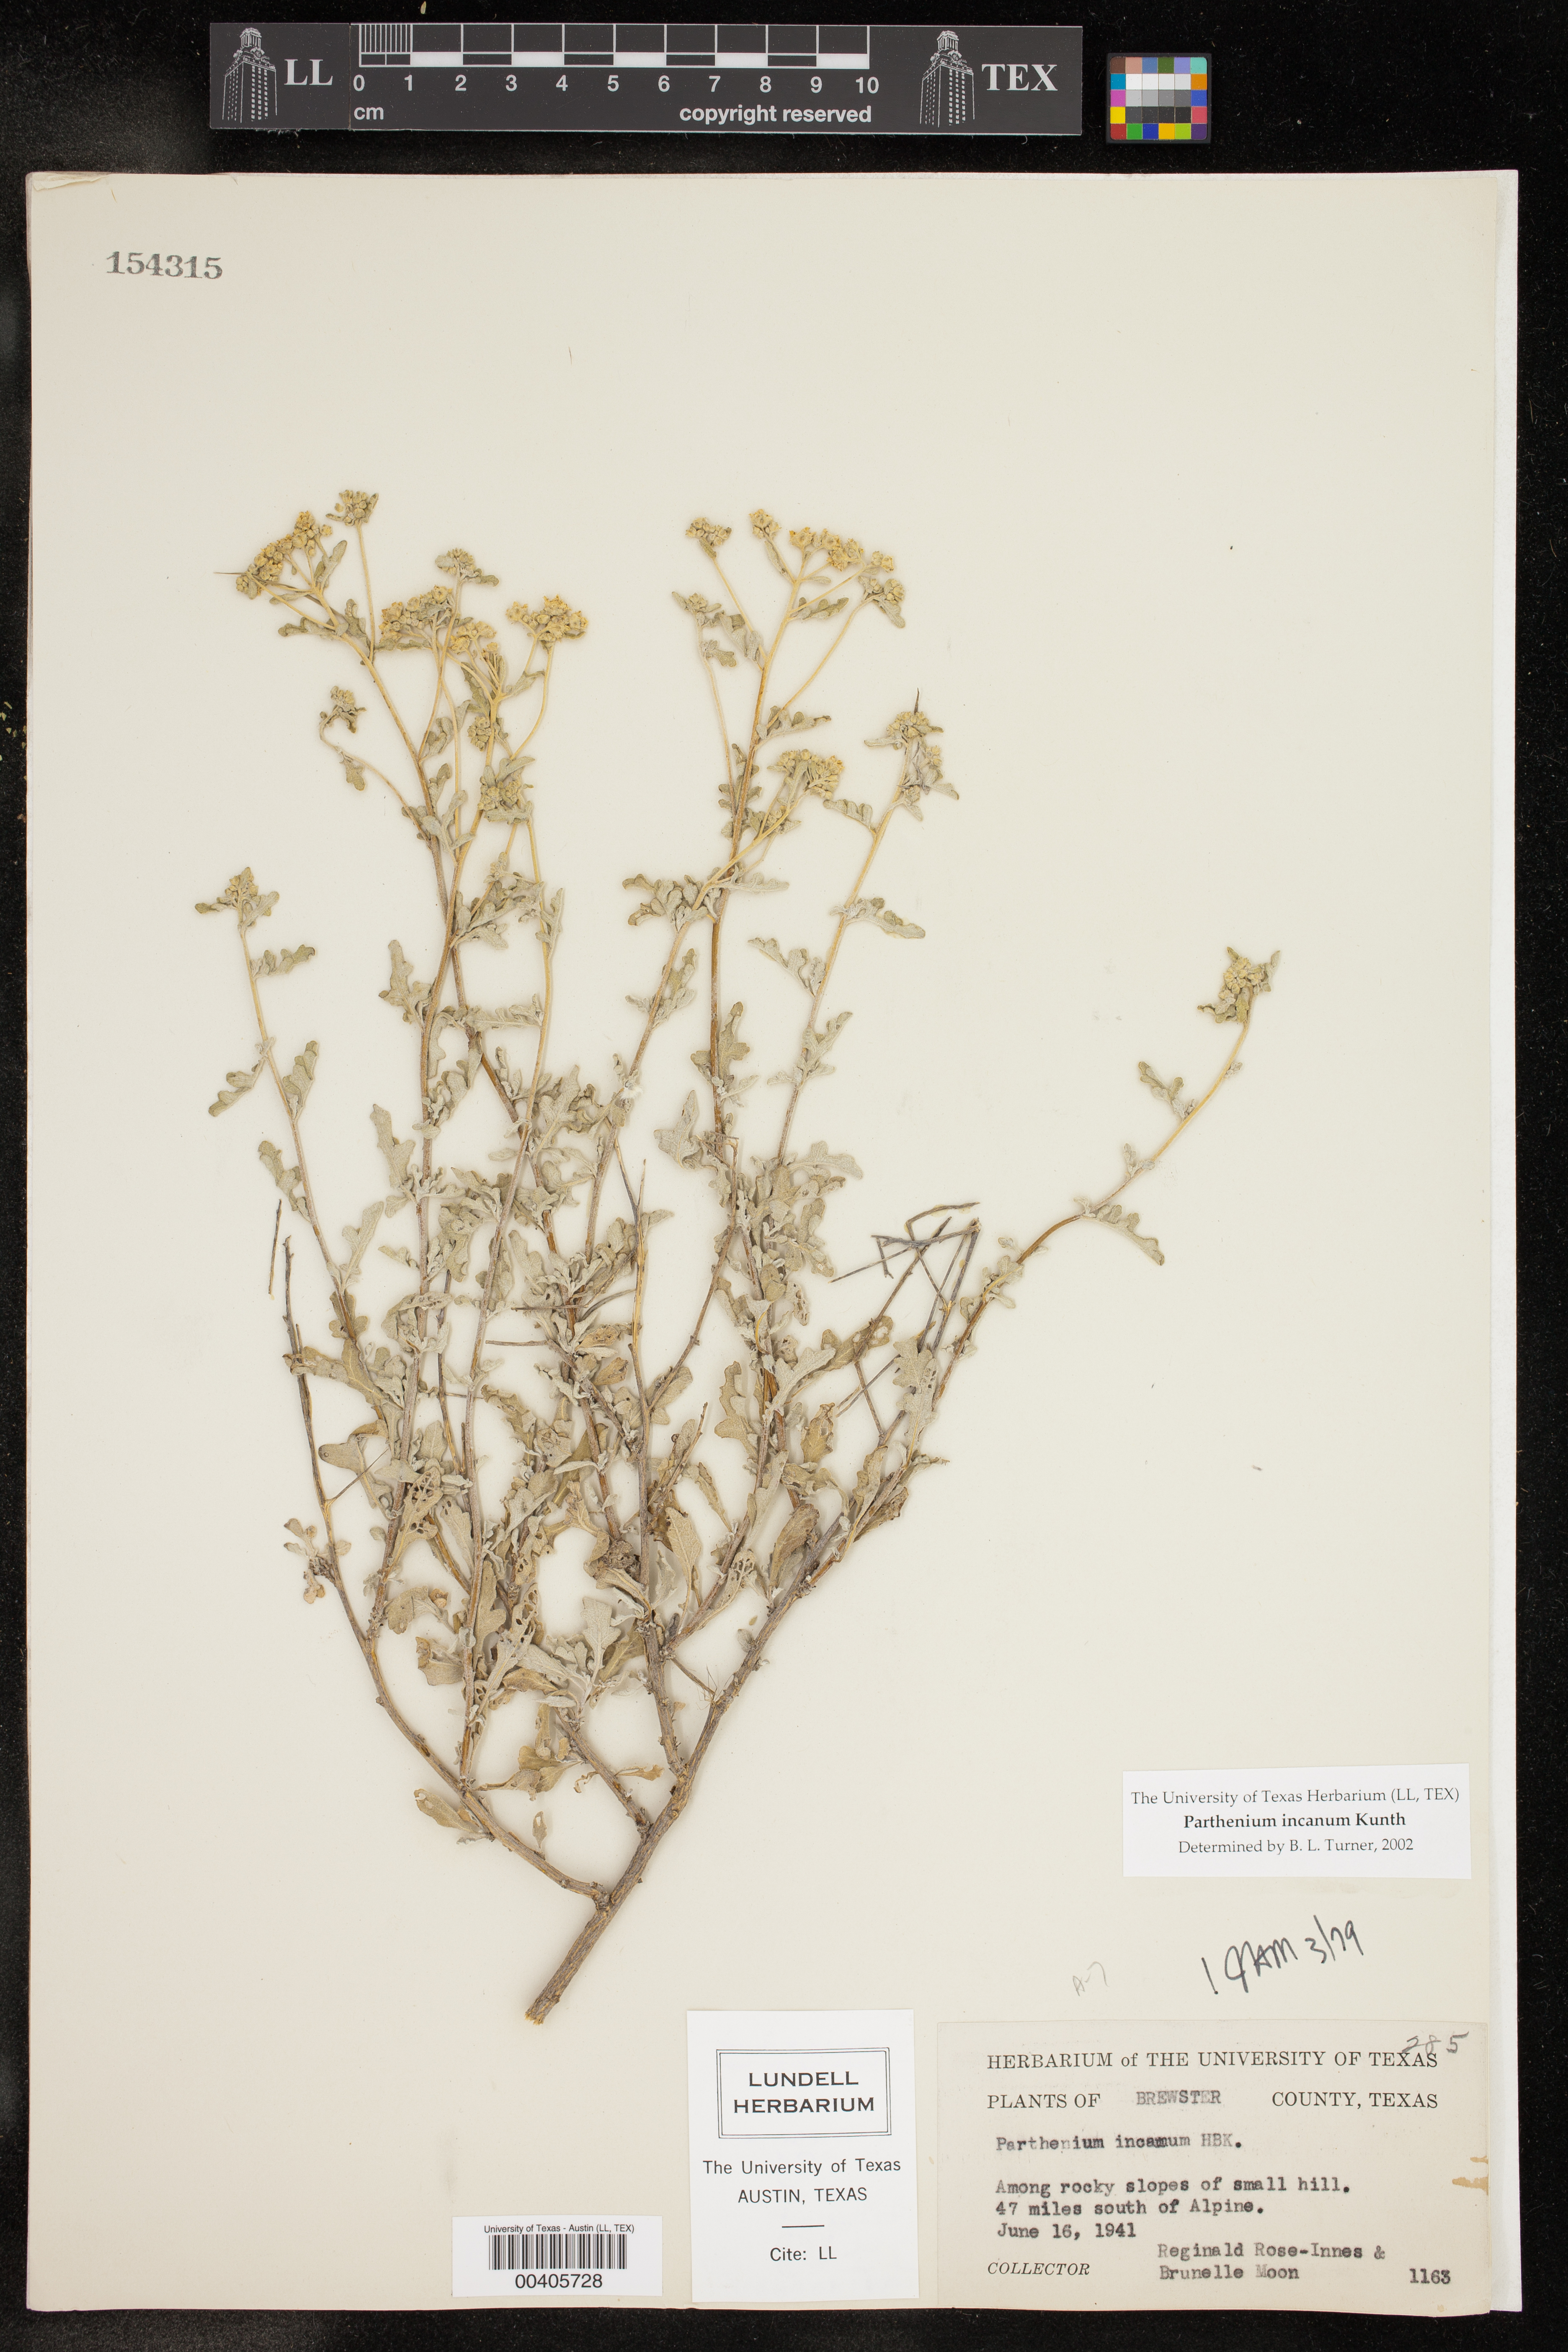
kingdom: Plantae
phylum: Tracheophyta
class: Magnoliopsida
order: Asterales
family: Asteraceae
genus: Parthenium
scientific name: Parthenium incanum
